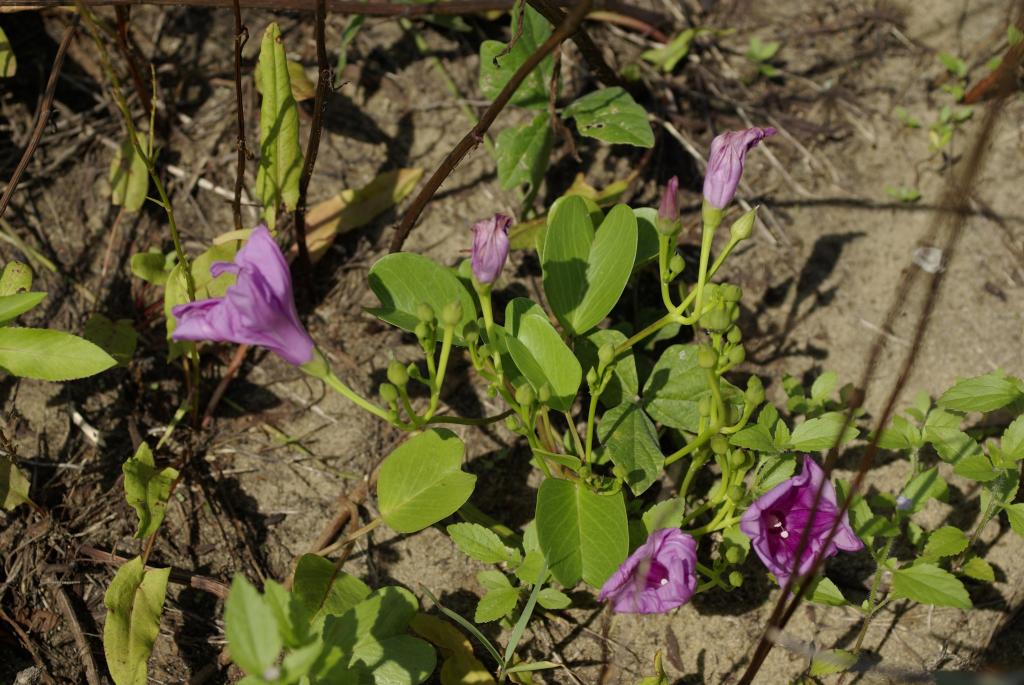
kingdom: Plantae
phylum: Tracheophyta
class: Magnoliopsida
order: Solanales
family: Convolvulaceae
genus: Ipomoea
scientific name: Ipomoea pes-caprae
